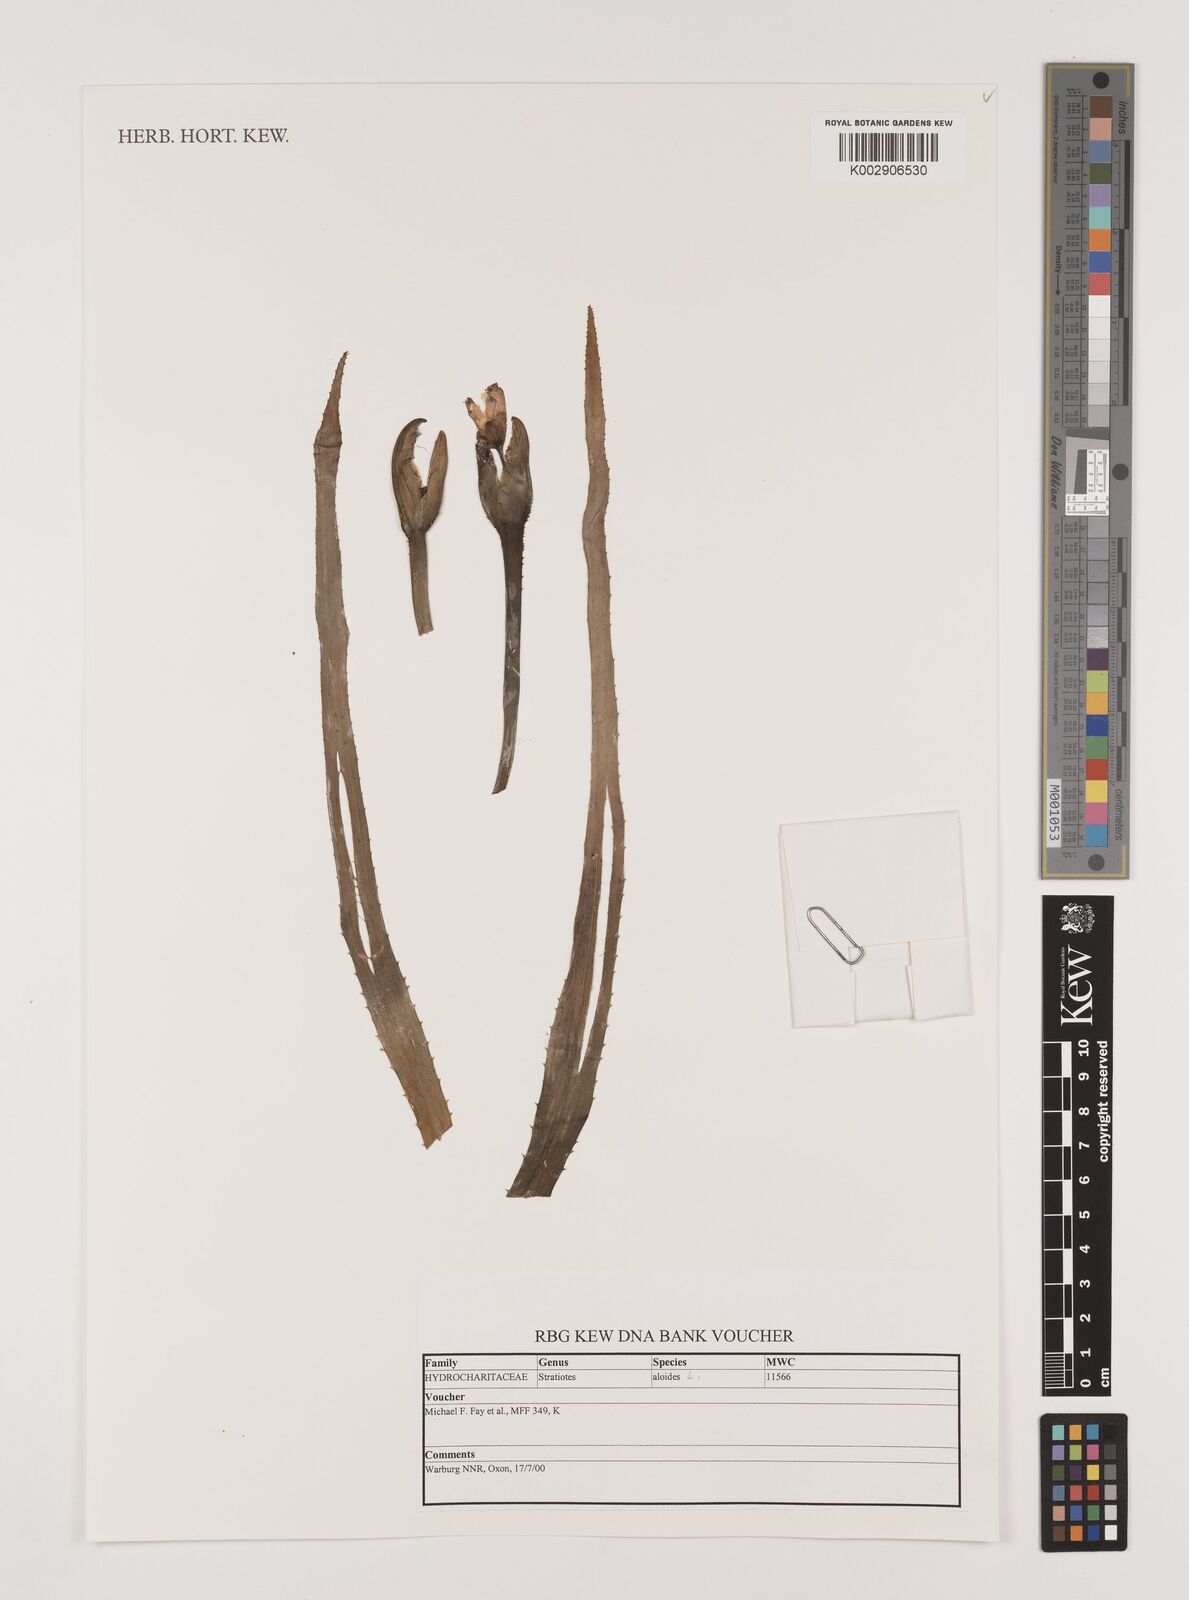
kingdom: Plantae
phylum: Tracheophyta
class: Liliopsida
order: Alismatales
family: Hydrocharitaceae
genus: Stratiotes
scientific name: Stratiotes aloides
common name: Water-soldier
